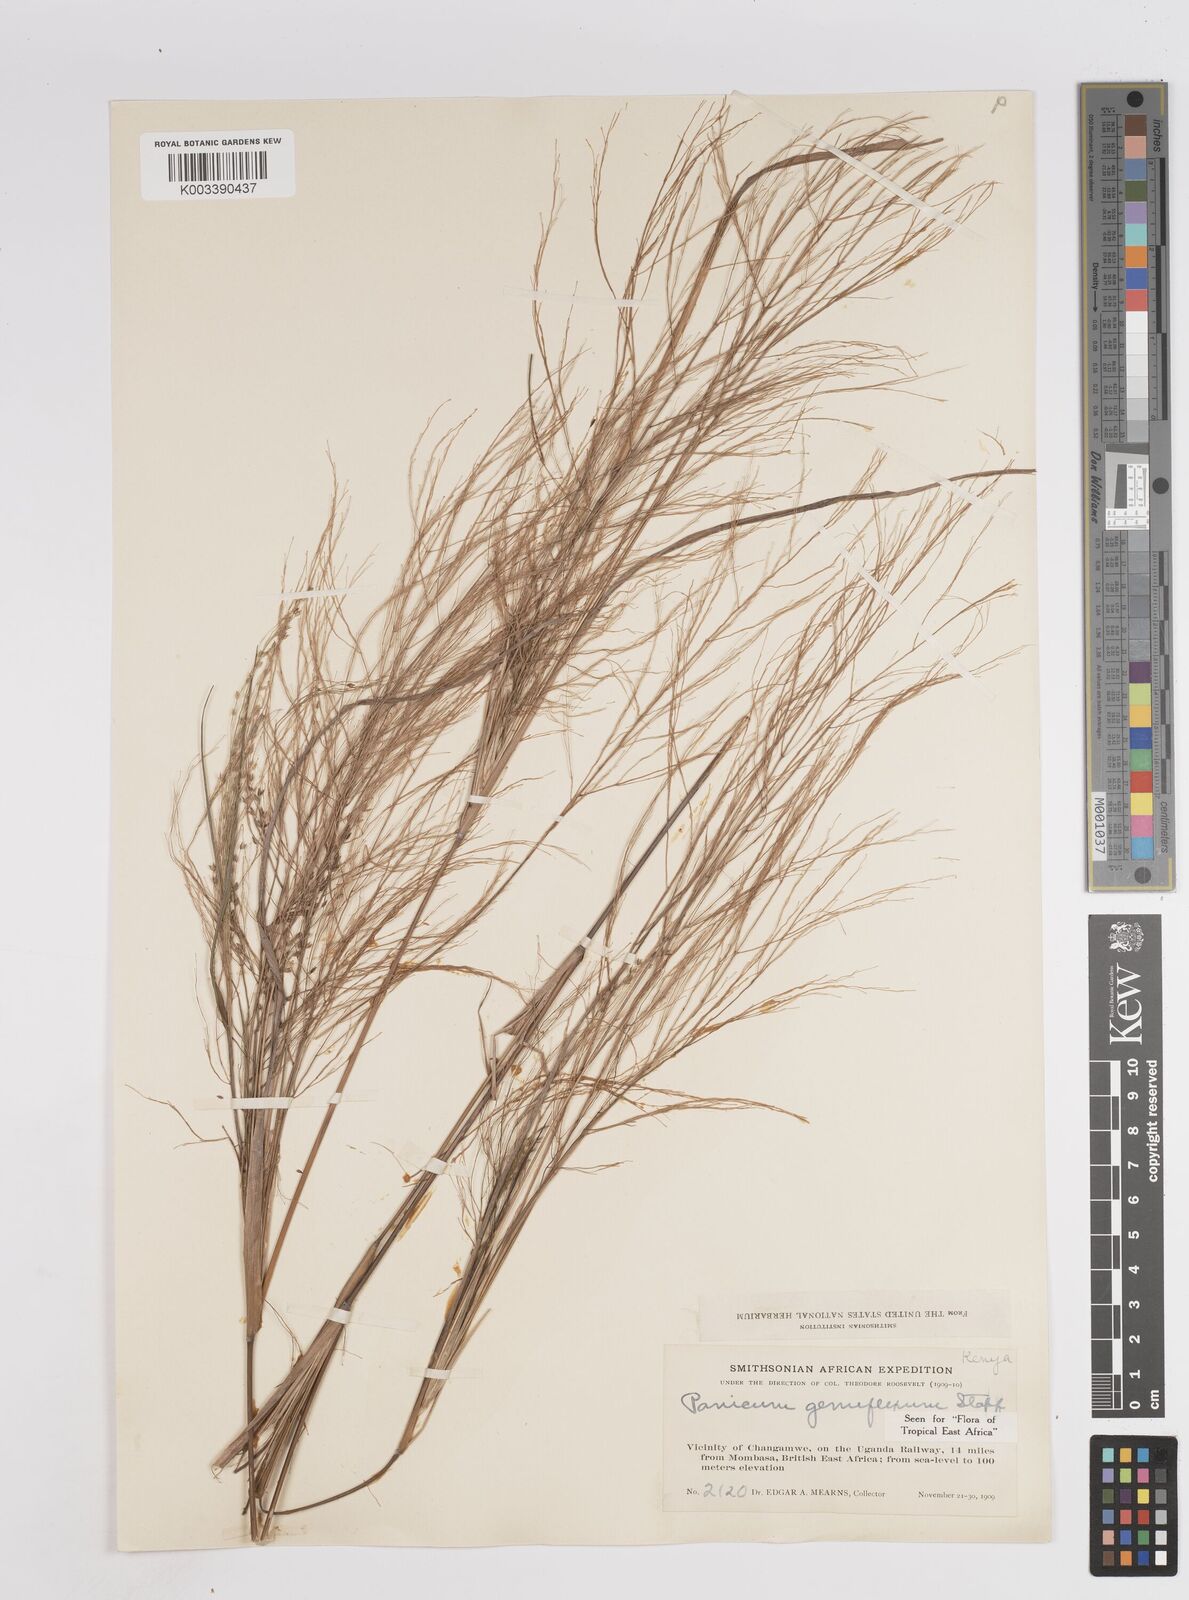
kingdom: Plantae
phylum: Tracheophyta
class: Liliopsida
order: Poales
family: Poaceae
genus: Panicum
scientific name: Panicum genuflexum
